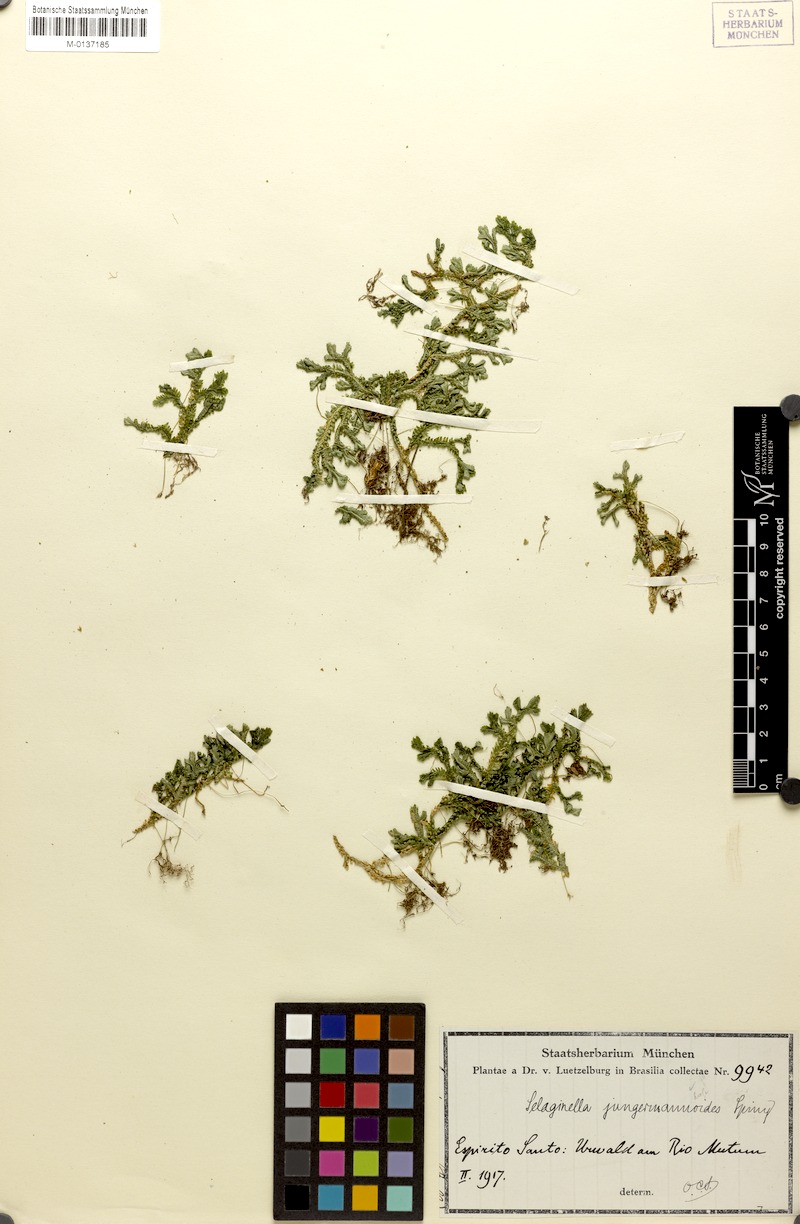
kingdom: Plantae
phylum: Tracheophyta
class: Lycopodiopsida
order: Selaginellales
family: Selaginellaceae
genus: Selaginella
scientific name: Selaginella jungermannioides
